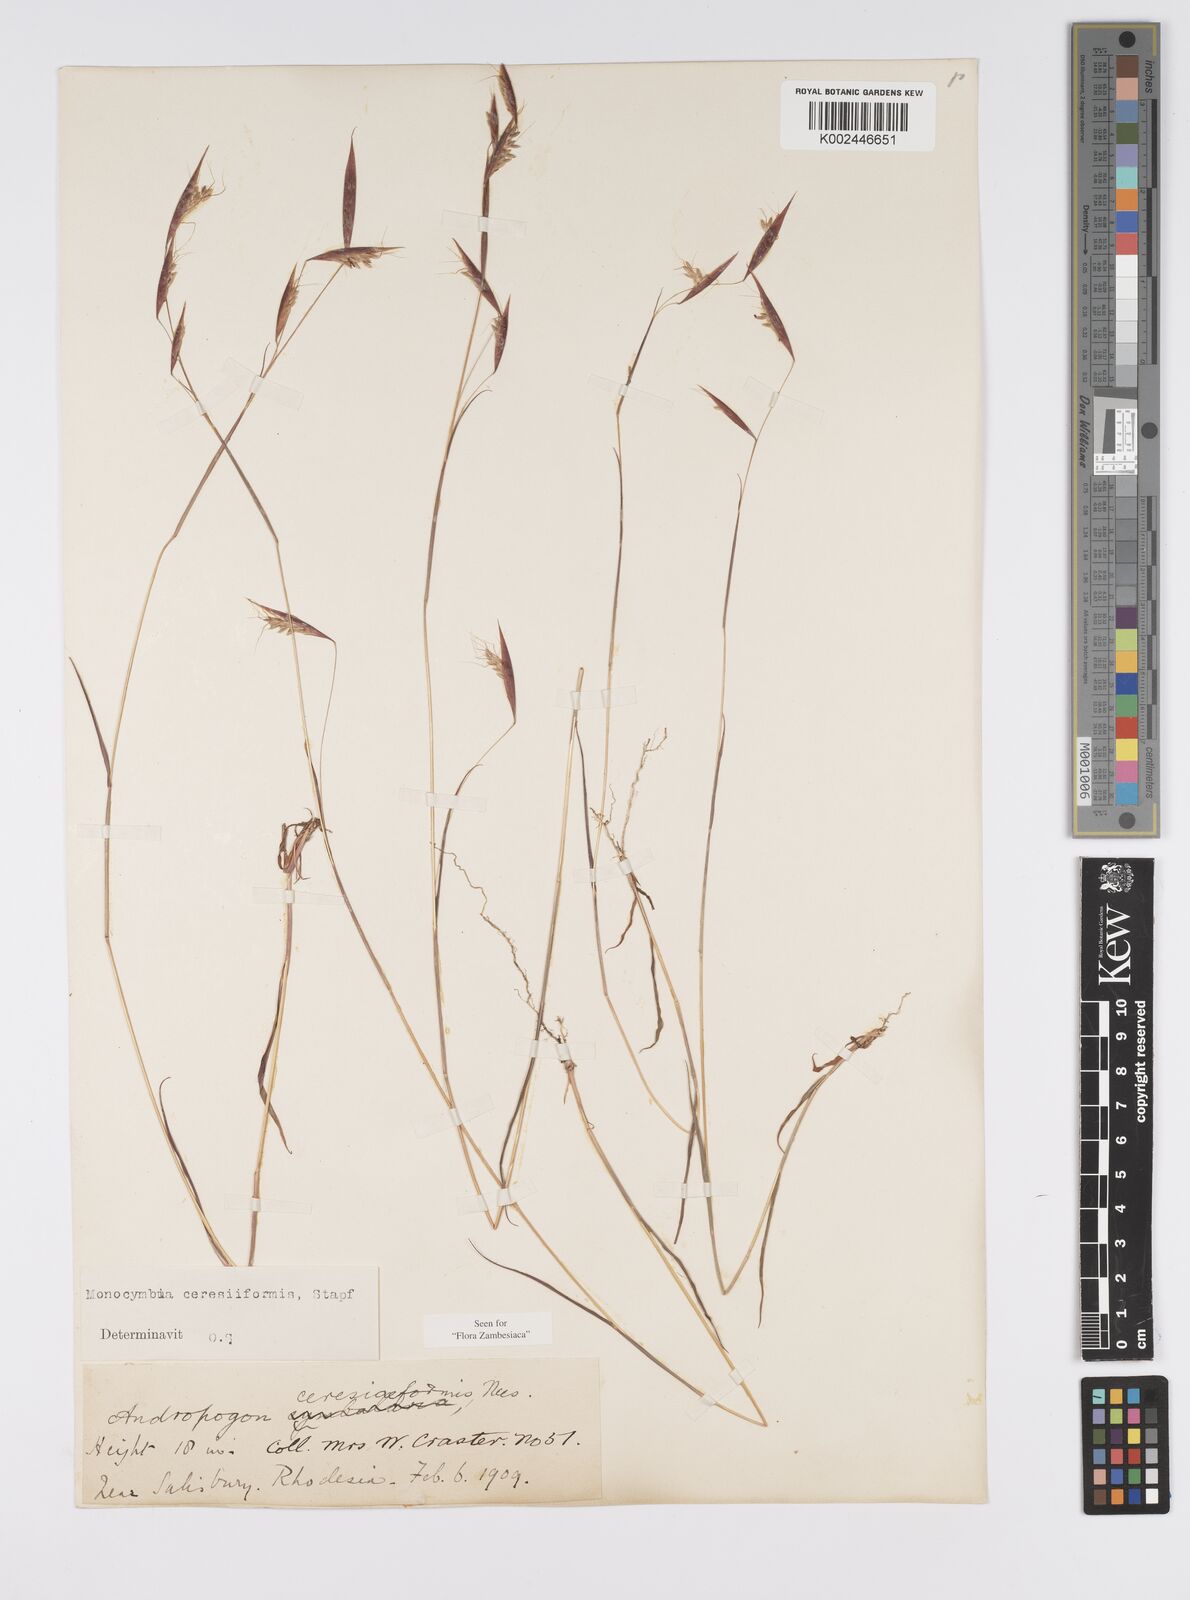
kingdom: Plantae
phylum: Tracheophyta
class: Liliopsida
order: Poales
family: Poaceae
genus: Monocymbium
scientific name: Monocymbium ceresiiforme
